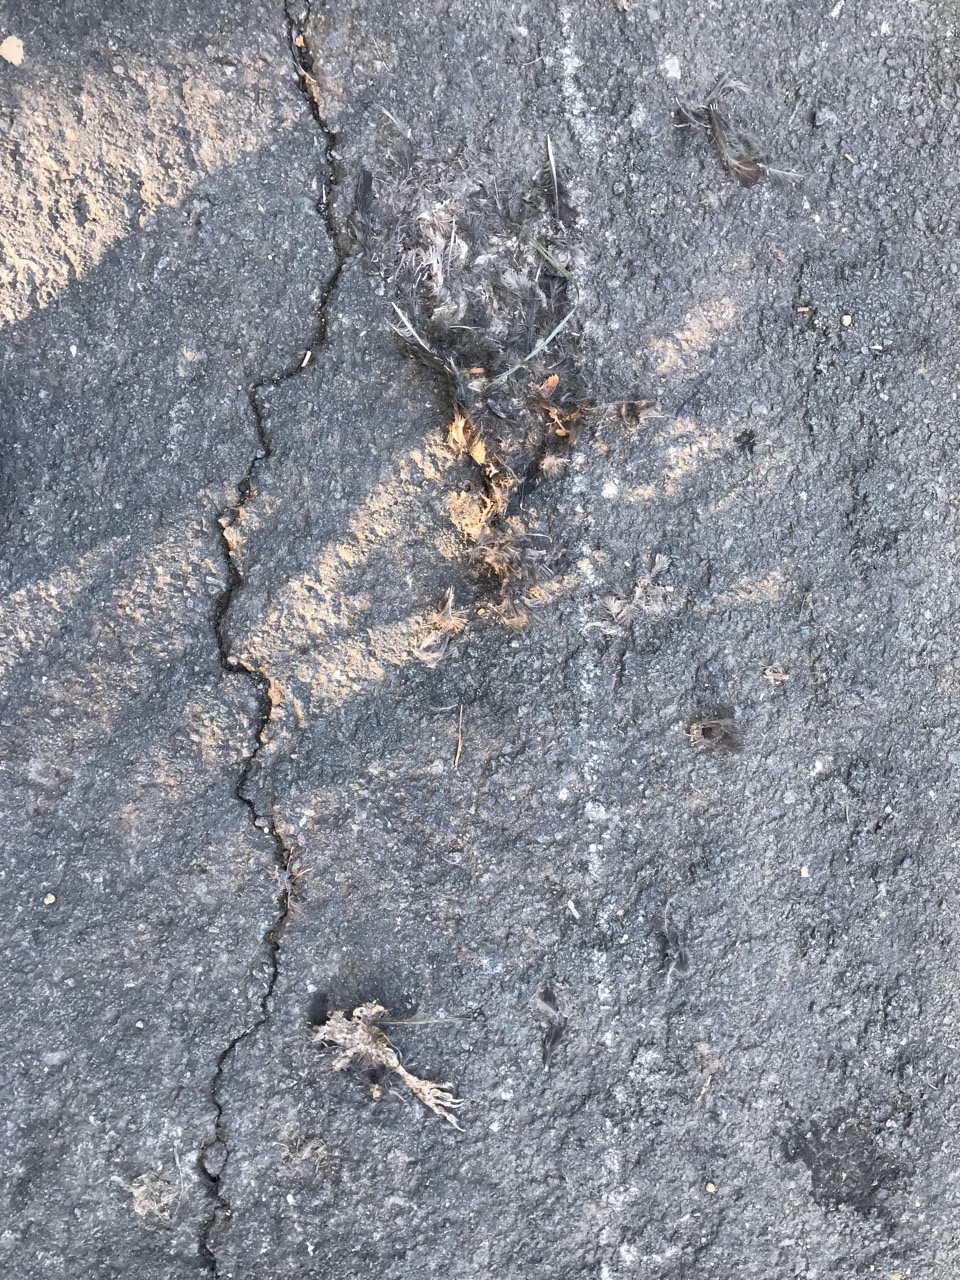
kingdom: Animalia
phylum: Chordata
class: Aves
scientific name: Aves
